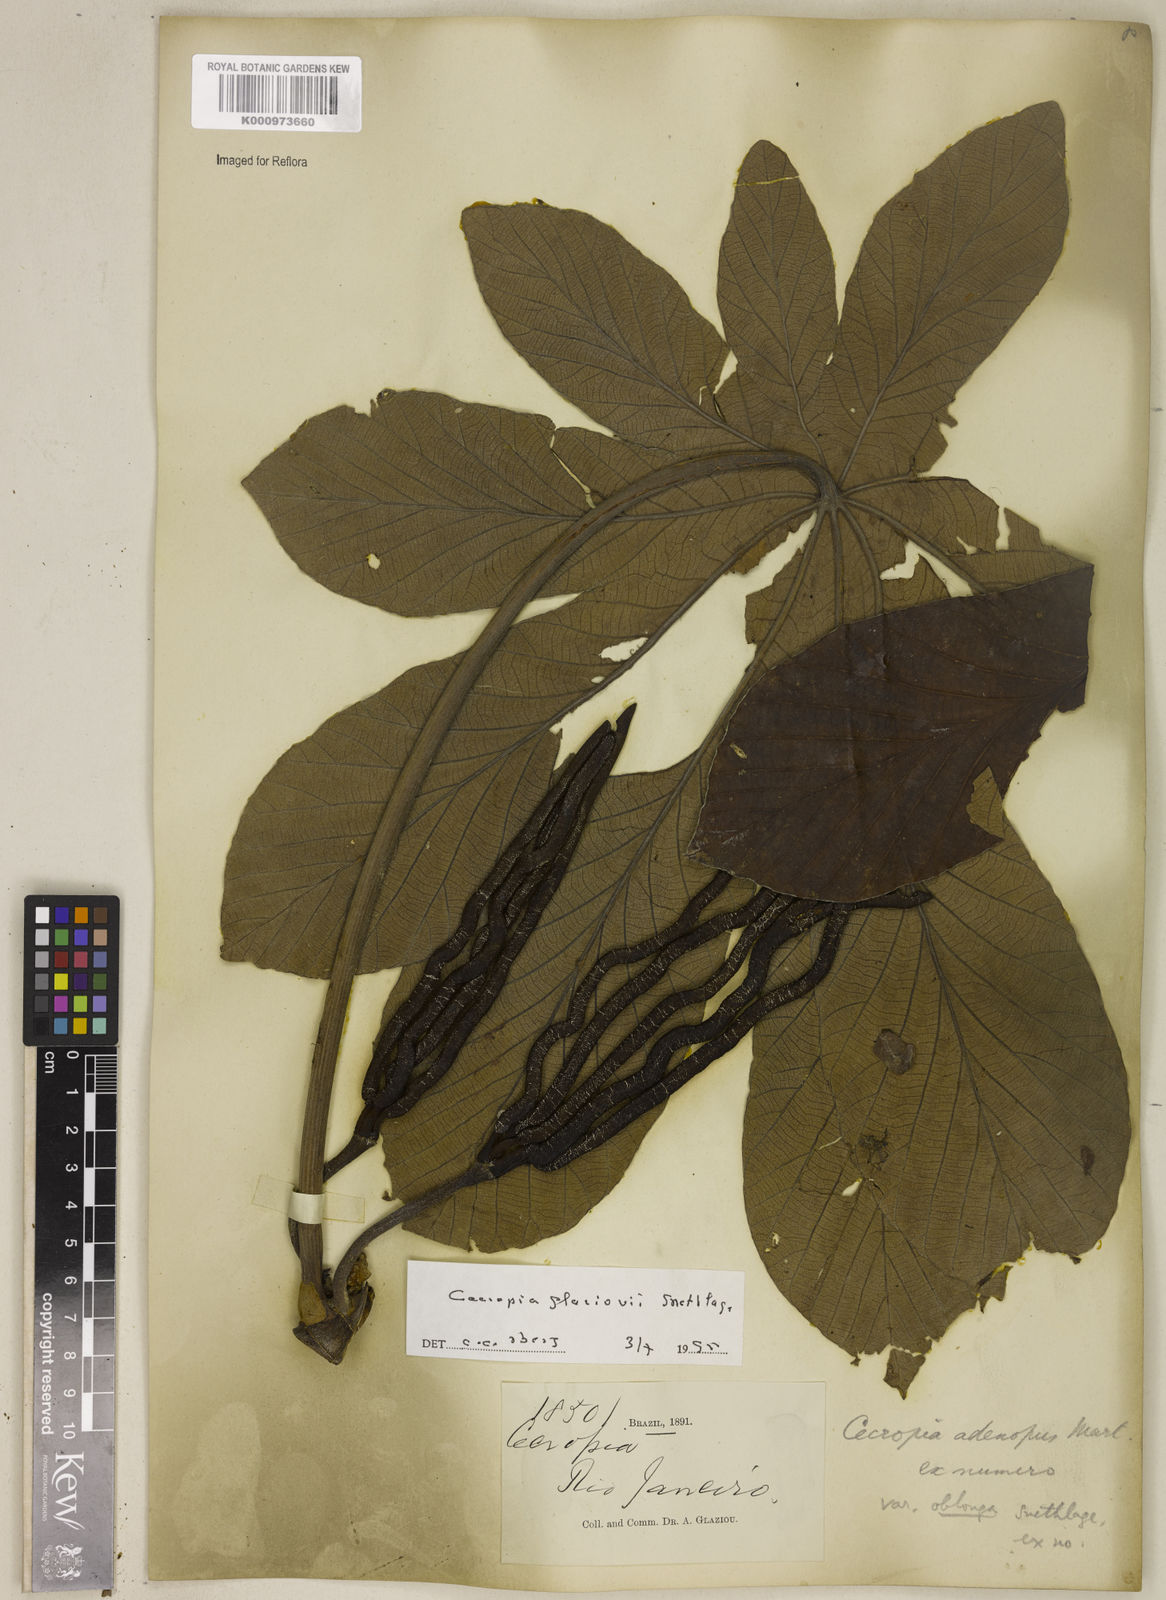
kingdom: Plantae
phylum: Tracheophyta
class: Magnoliopsida
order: Rosales
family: Urticaceae
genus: Cecropia
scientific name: Cecropia glaziovii
